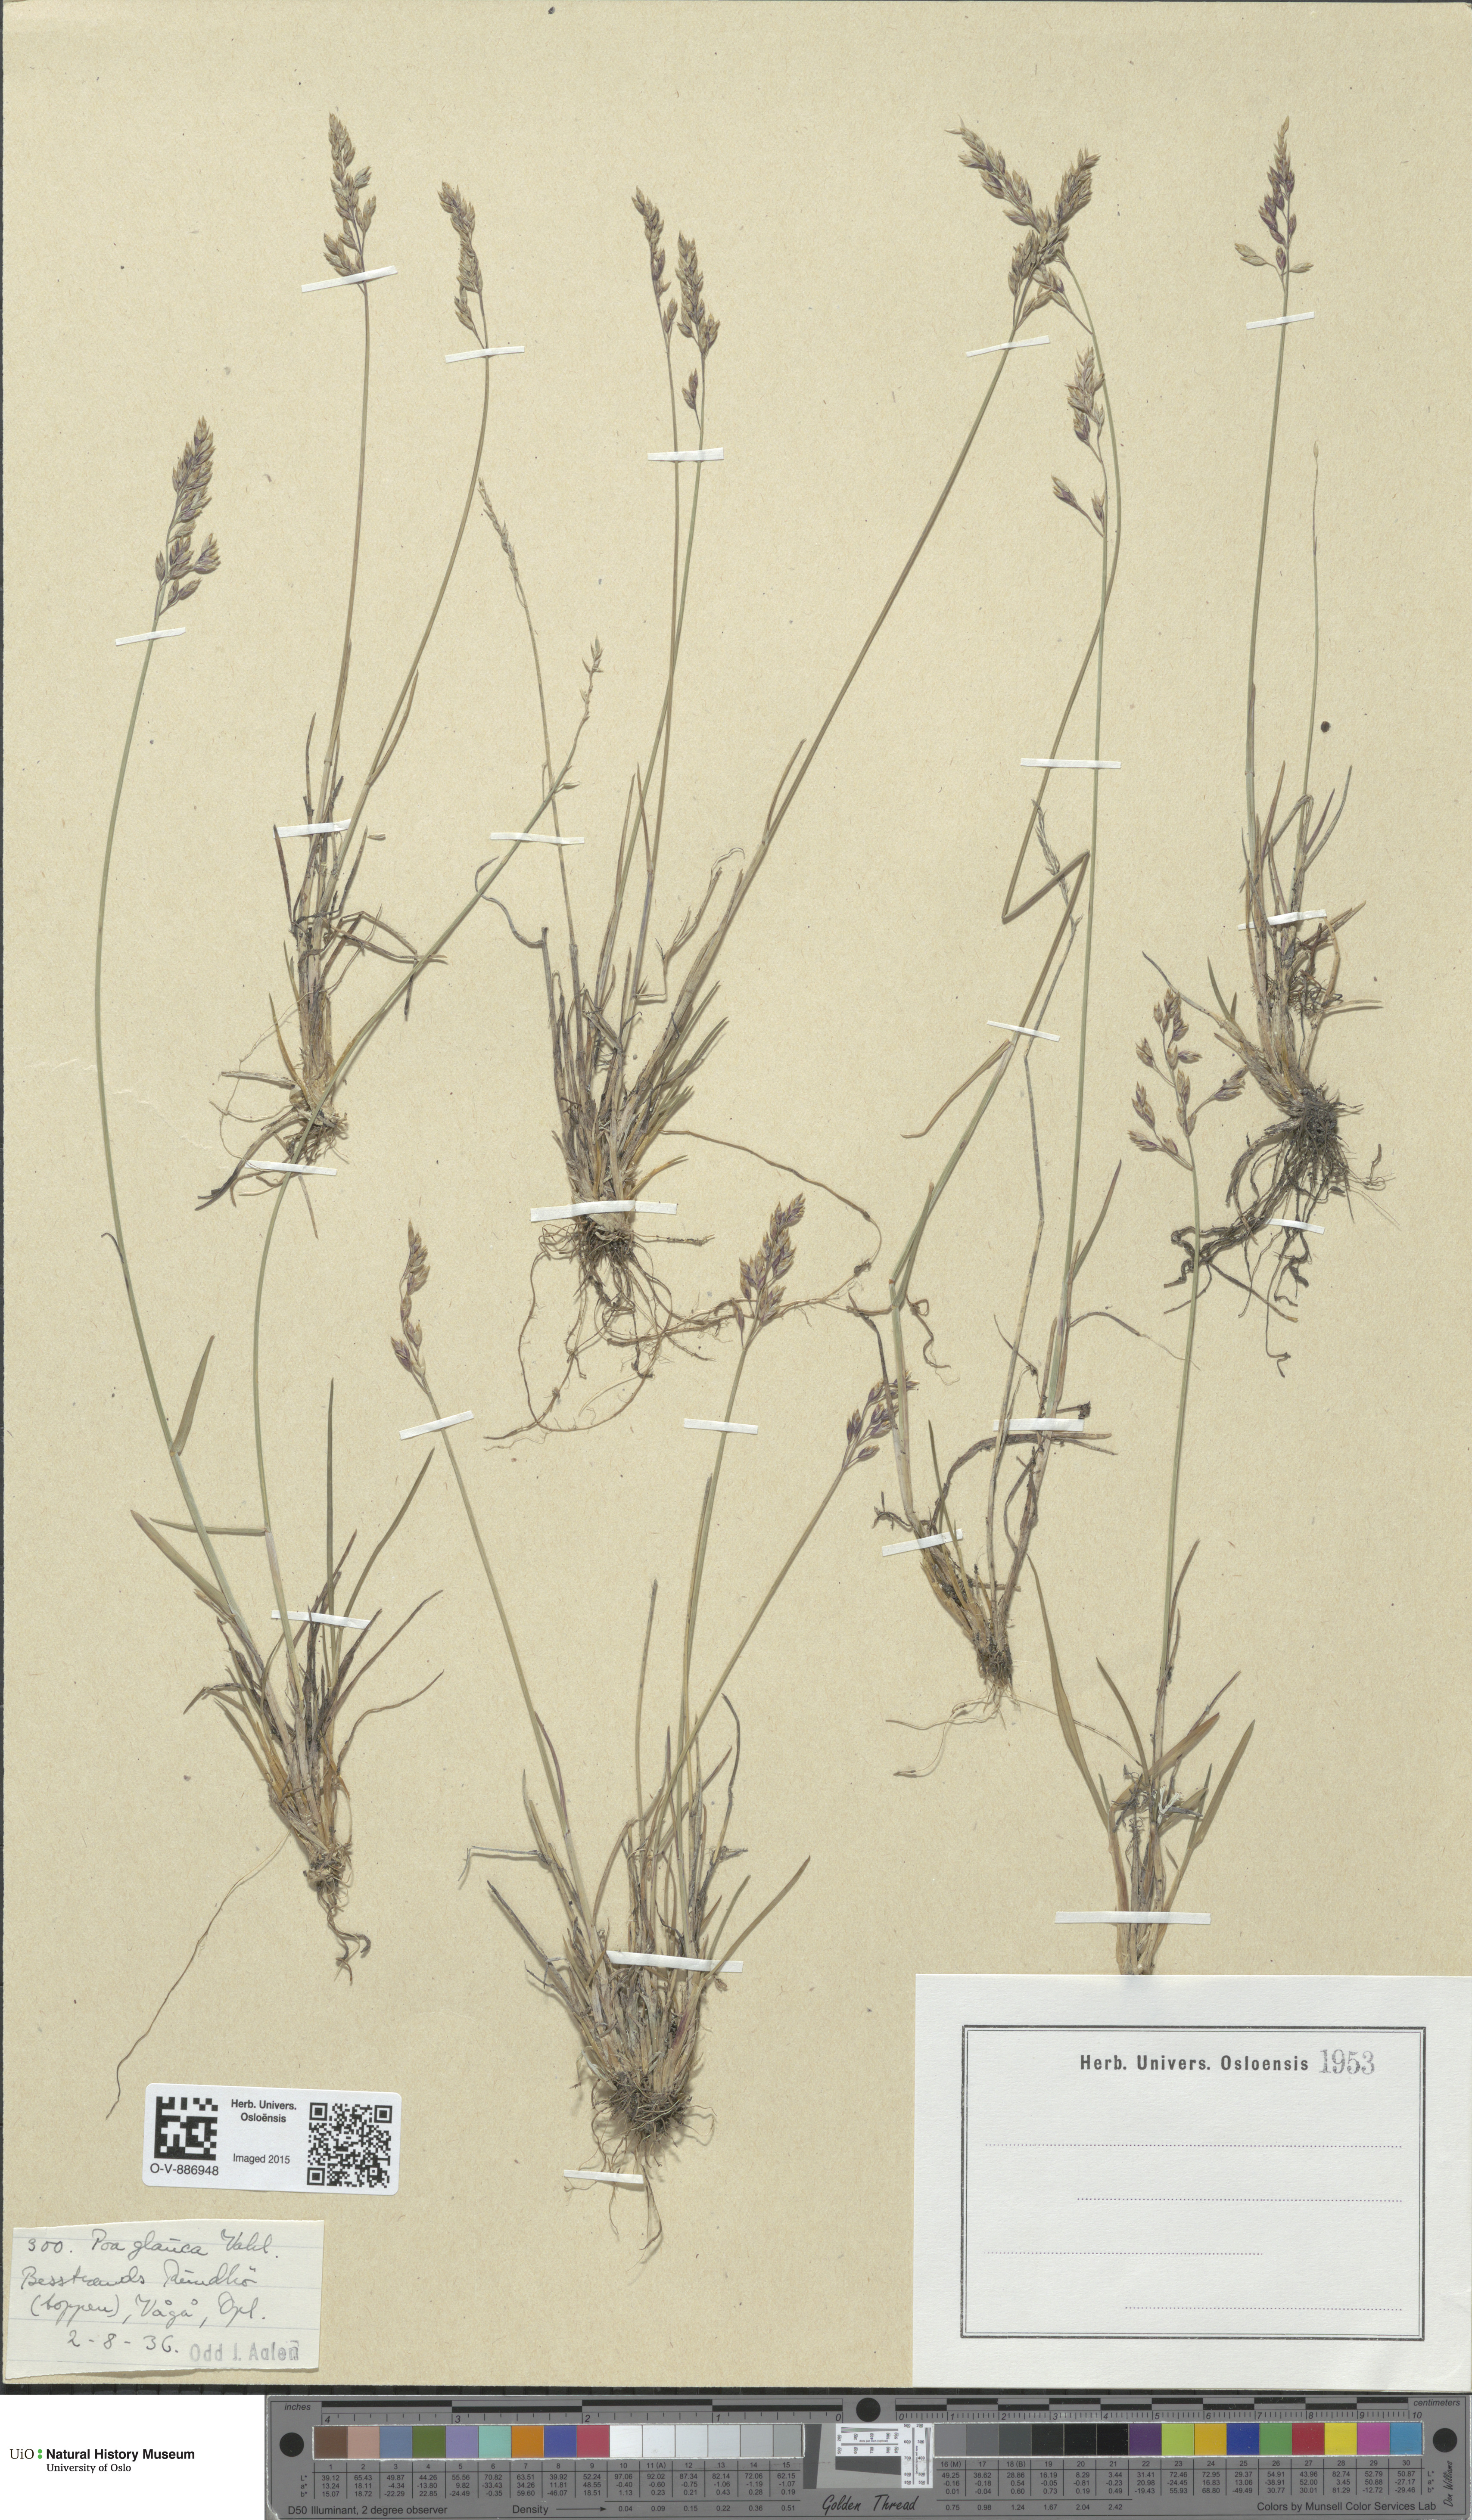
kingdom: Plantae
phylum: Tracheophyta
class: Liliopsida
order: Poales
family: Poaceae
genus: Poa
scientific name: Poa glauca
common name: Glaucous bluegrass
